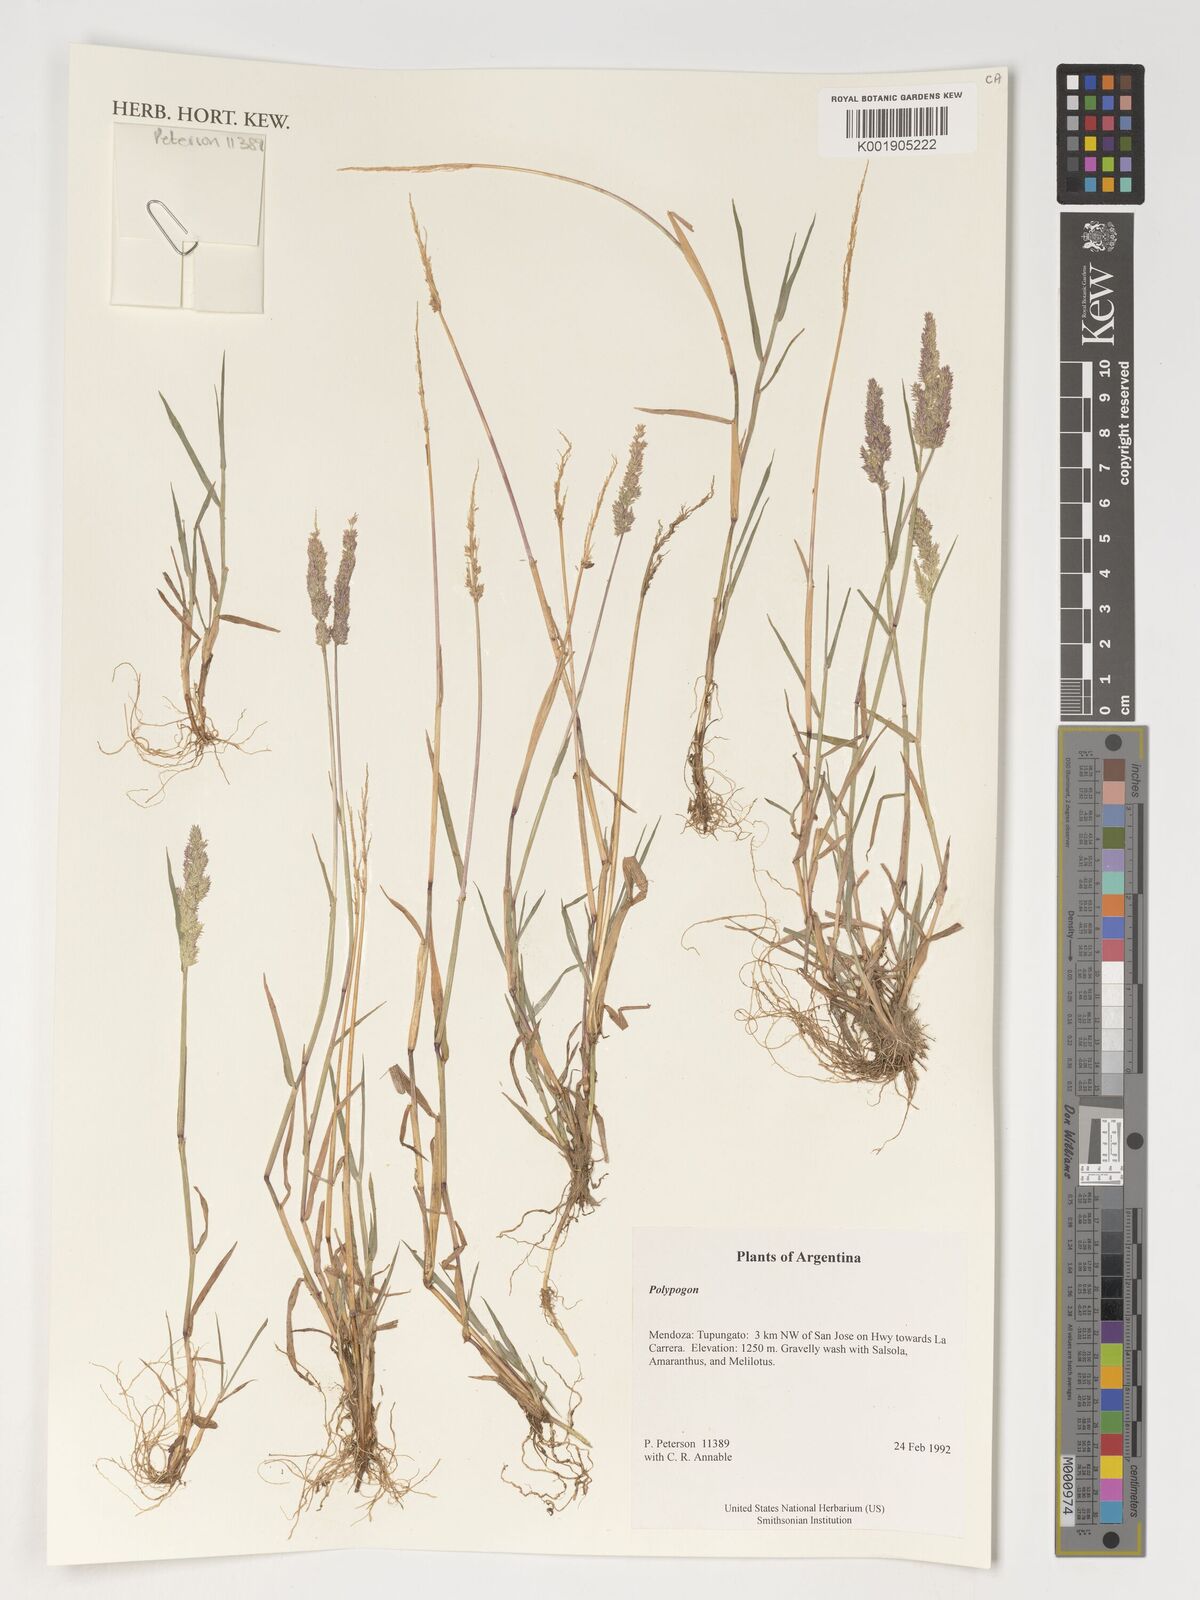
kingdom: Plantae
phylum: Tracheophyta
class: Liliopsida
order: Poales
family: Poaceae
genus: Polypogon
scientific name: Polypogon
